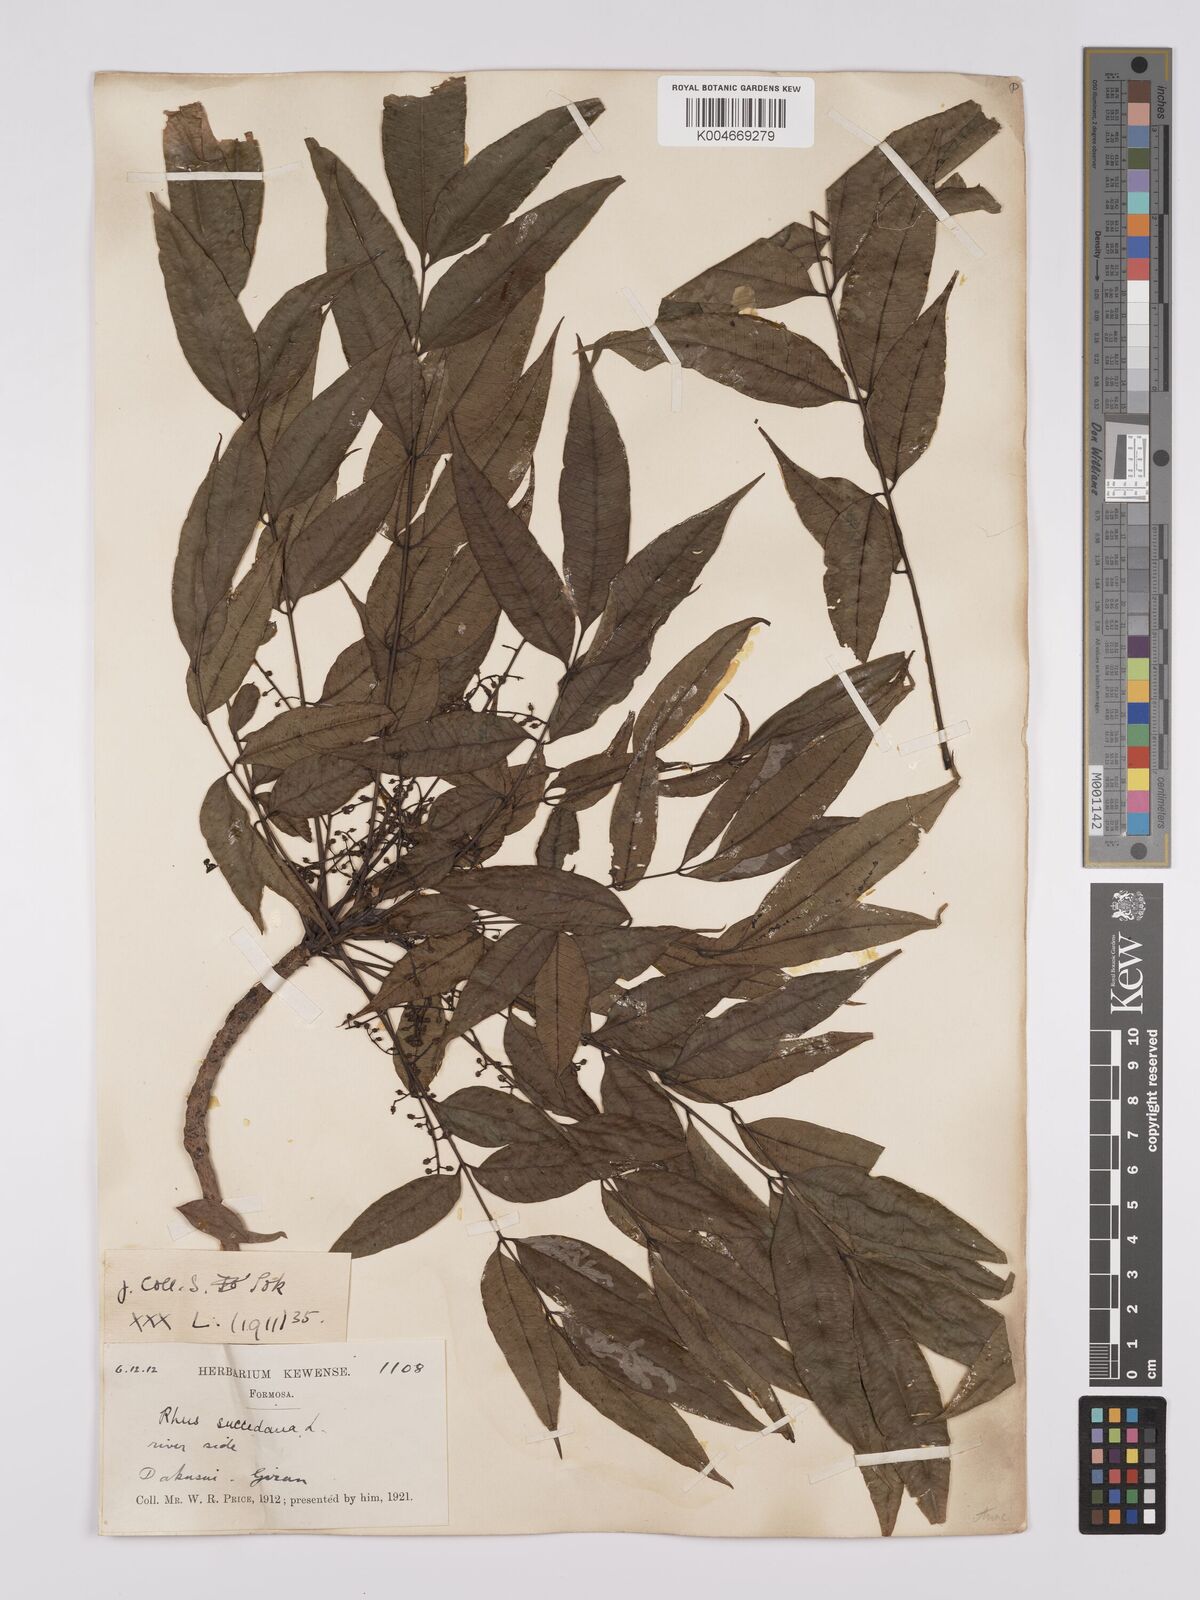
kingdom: Plantae
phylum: Tracheophyta
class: Magnoliopsida
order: Sapindales
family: Anacardiaceae
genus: Toxicodendron
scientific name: Toxicodendron succedaneum
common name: Wax tree
